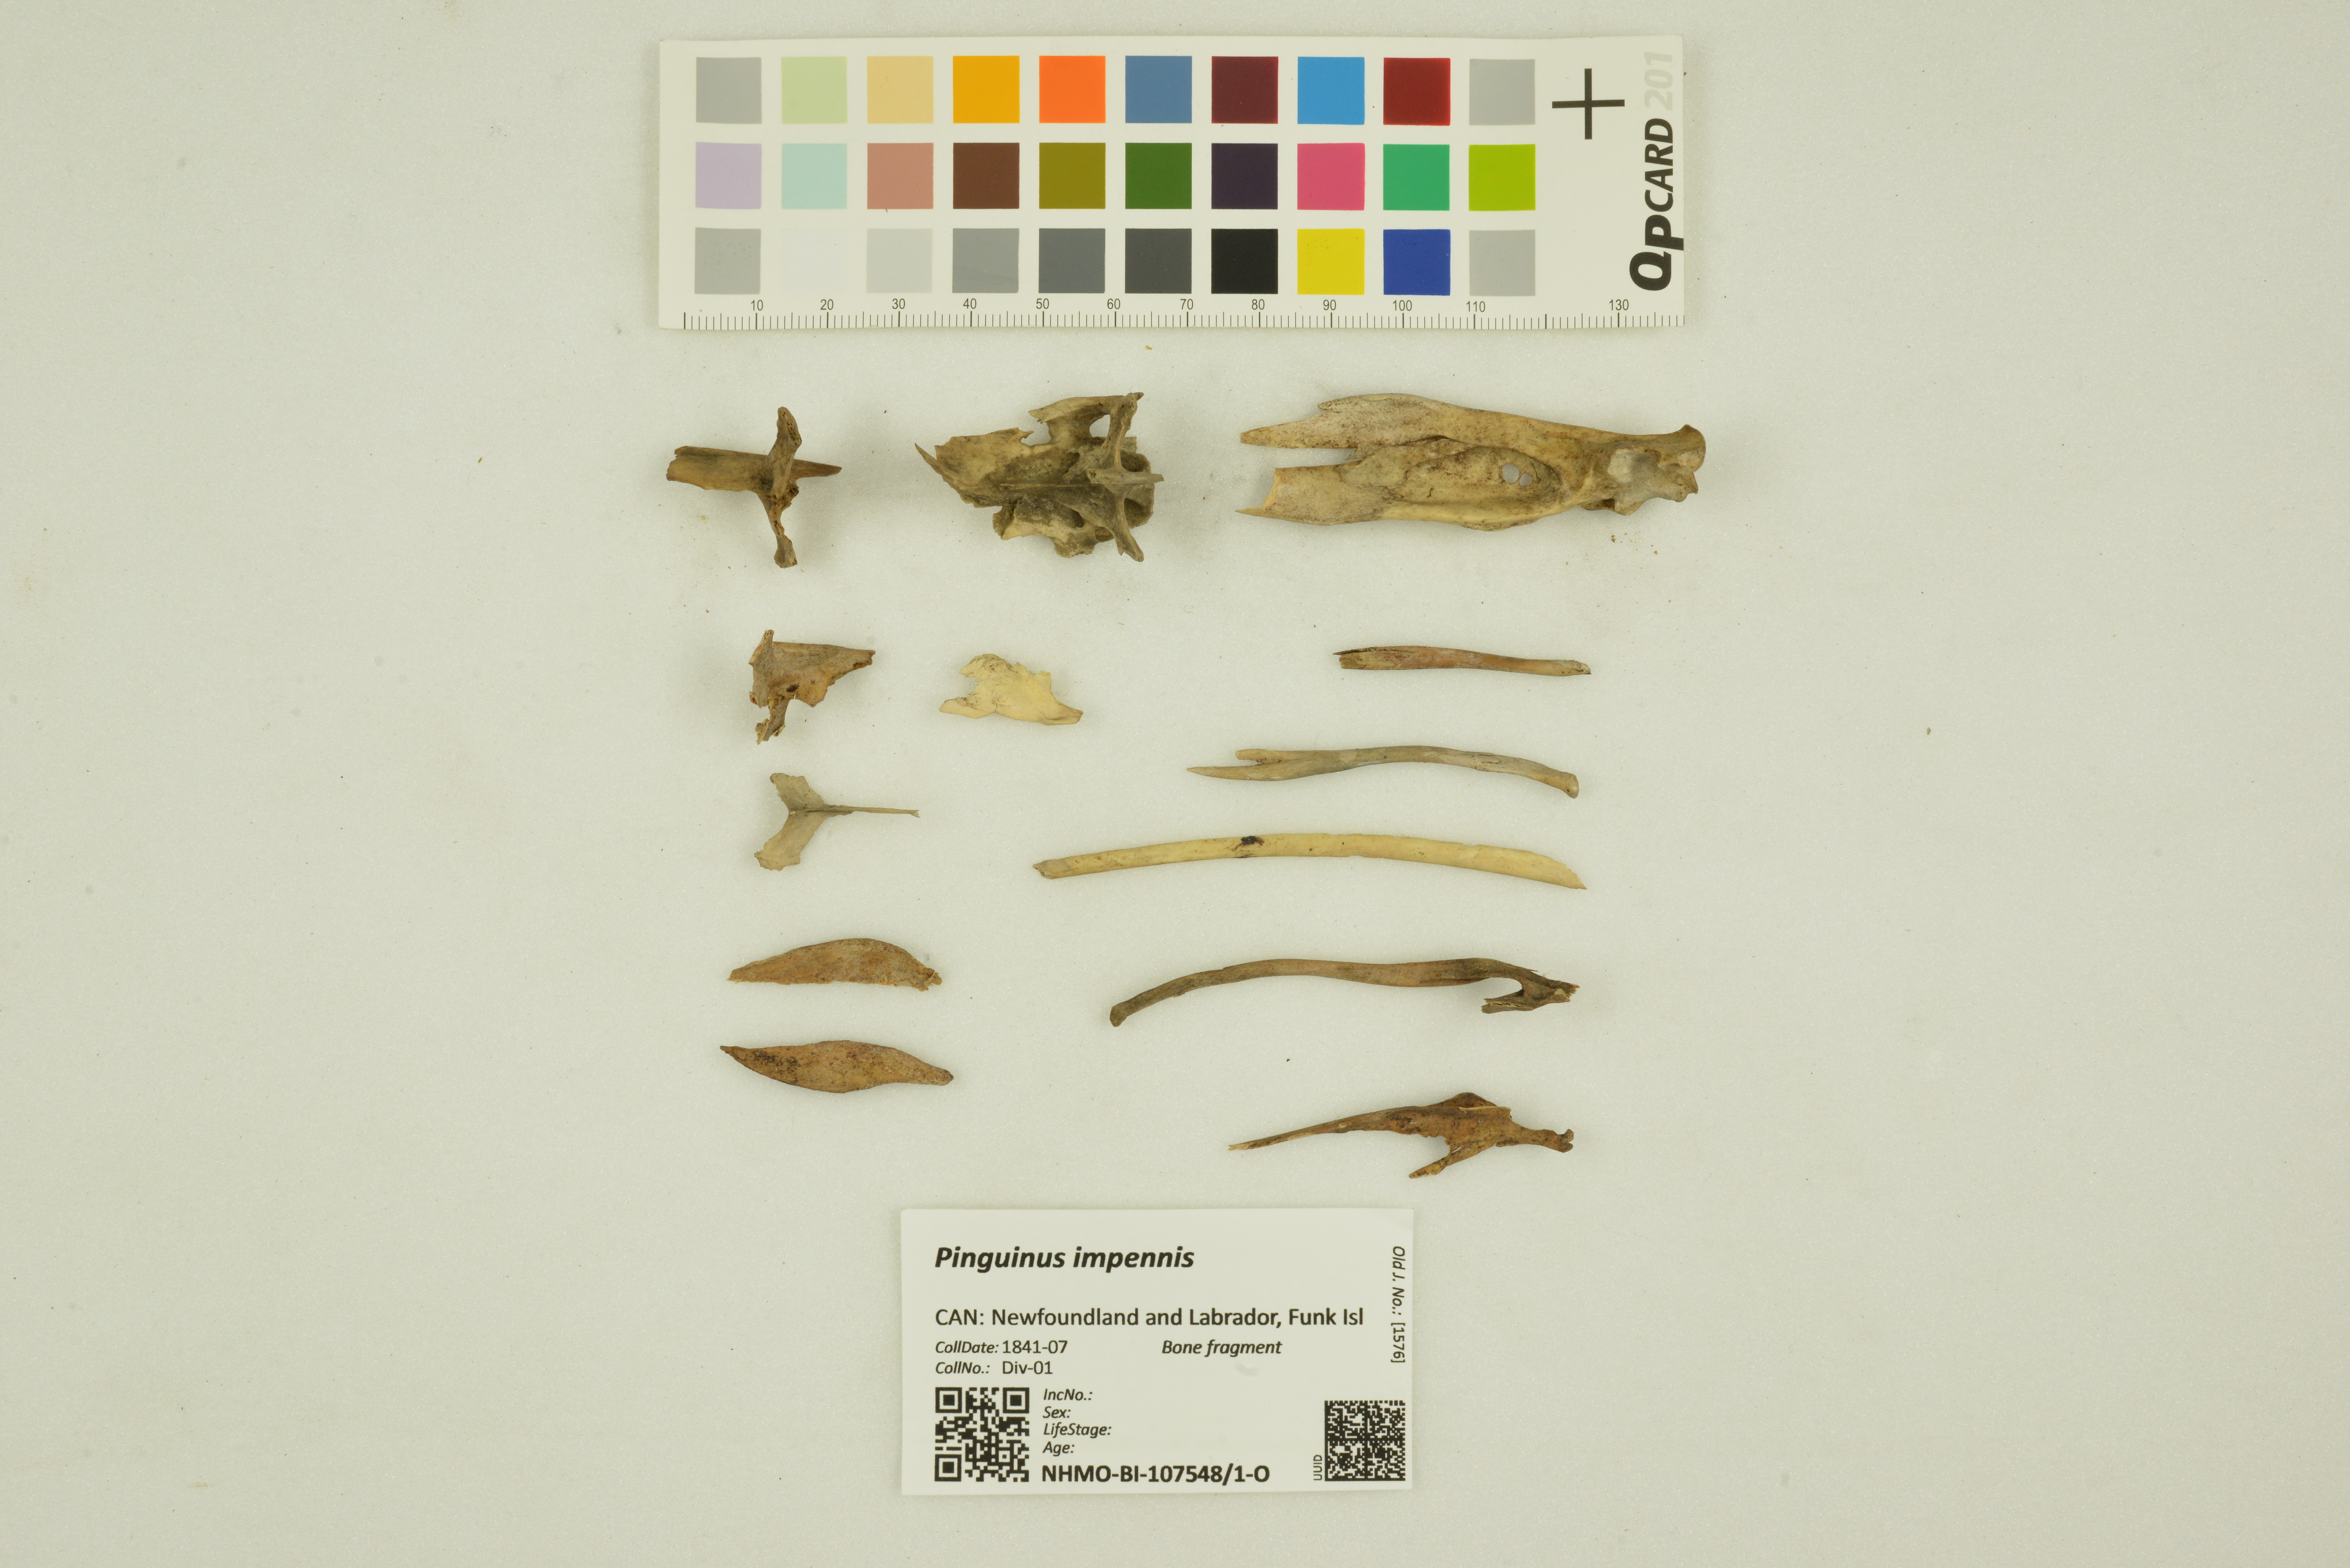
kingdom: Animalia
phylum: Chordata
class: Aves
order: Charadriiformes
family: Alcidae
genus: Pinguinus
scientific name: Pinguinus impennis
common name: Great auk
